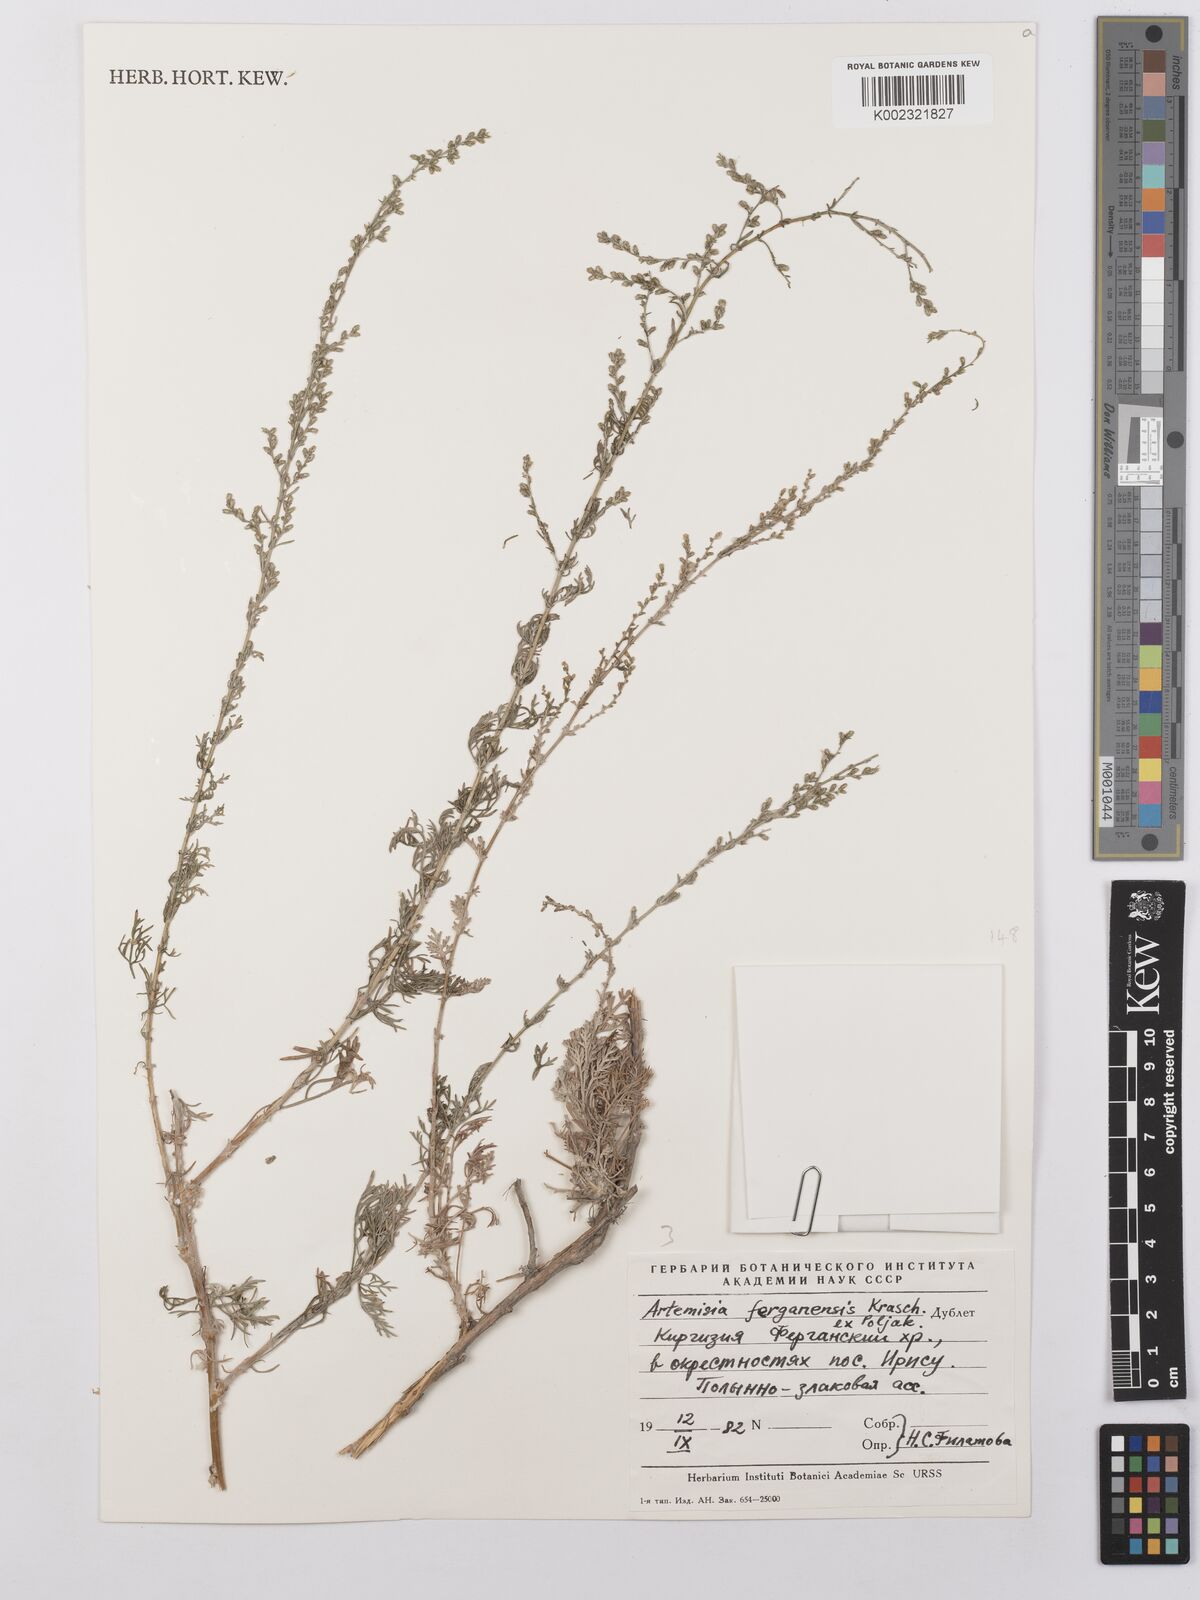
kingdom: Plantae
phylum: Tracheophyta
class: Magnoliopsida
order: Asterales
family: Asteraceae
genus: Artemisia
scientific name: Artemisia ferganensis
